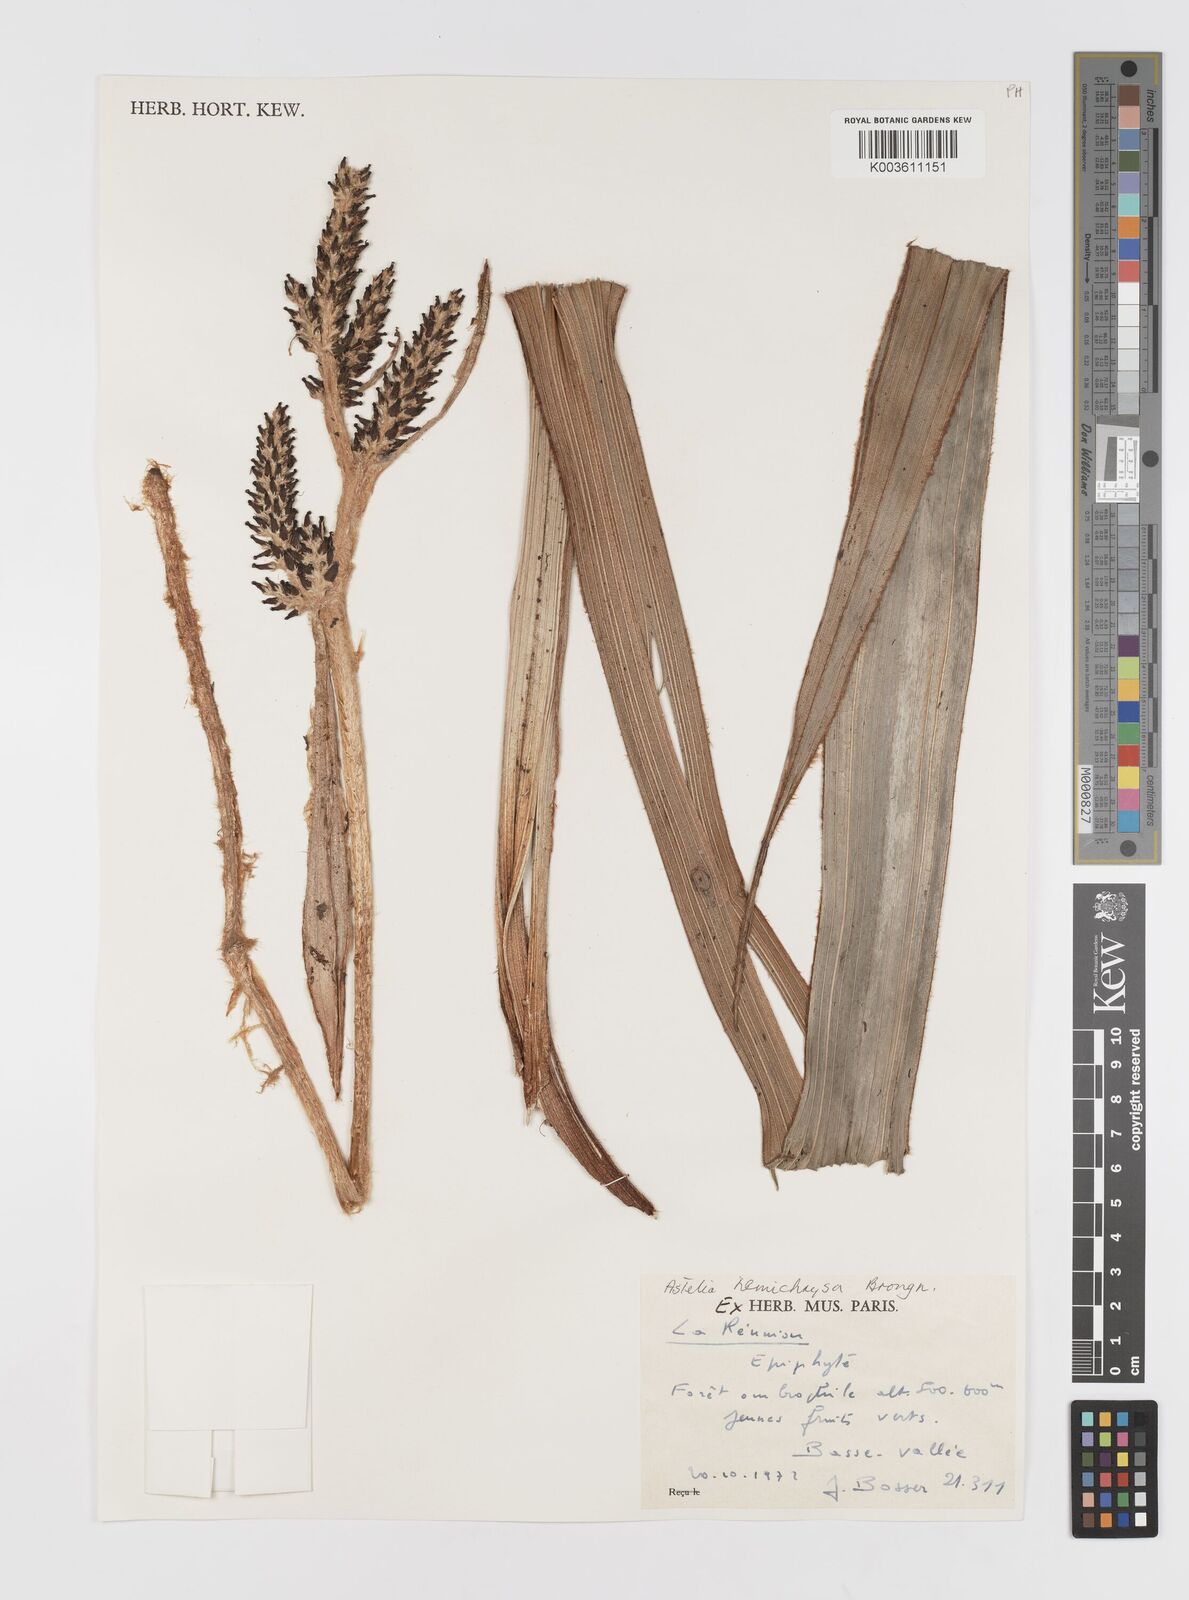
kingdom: Plantae
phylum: Tracheophyta
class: Liliopsida
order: Asparagales
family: Asteliaceae
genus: Astelia
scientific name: Astelia hemichrysa
